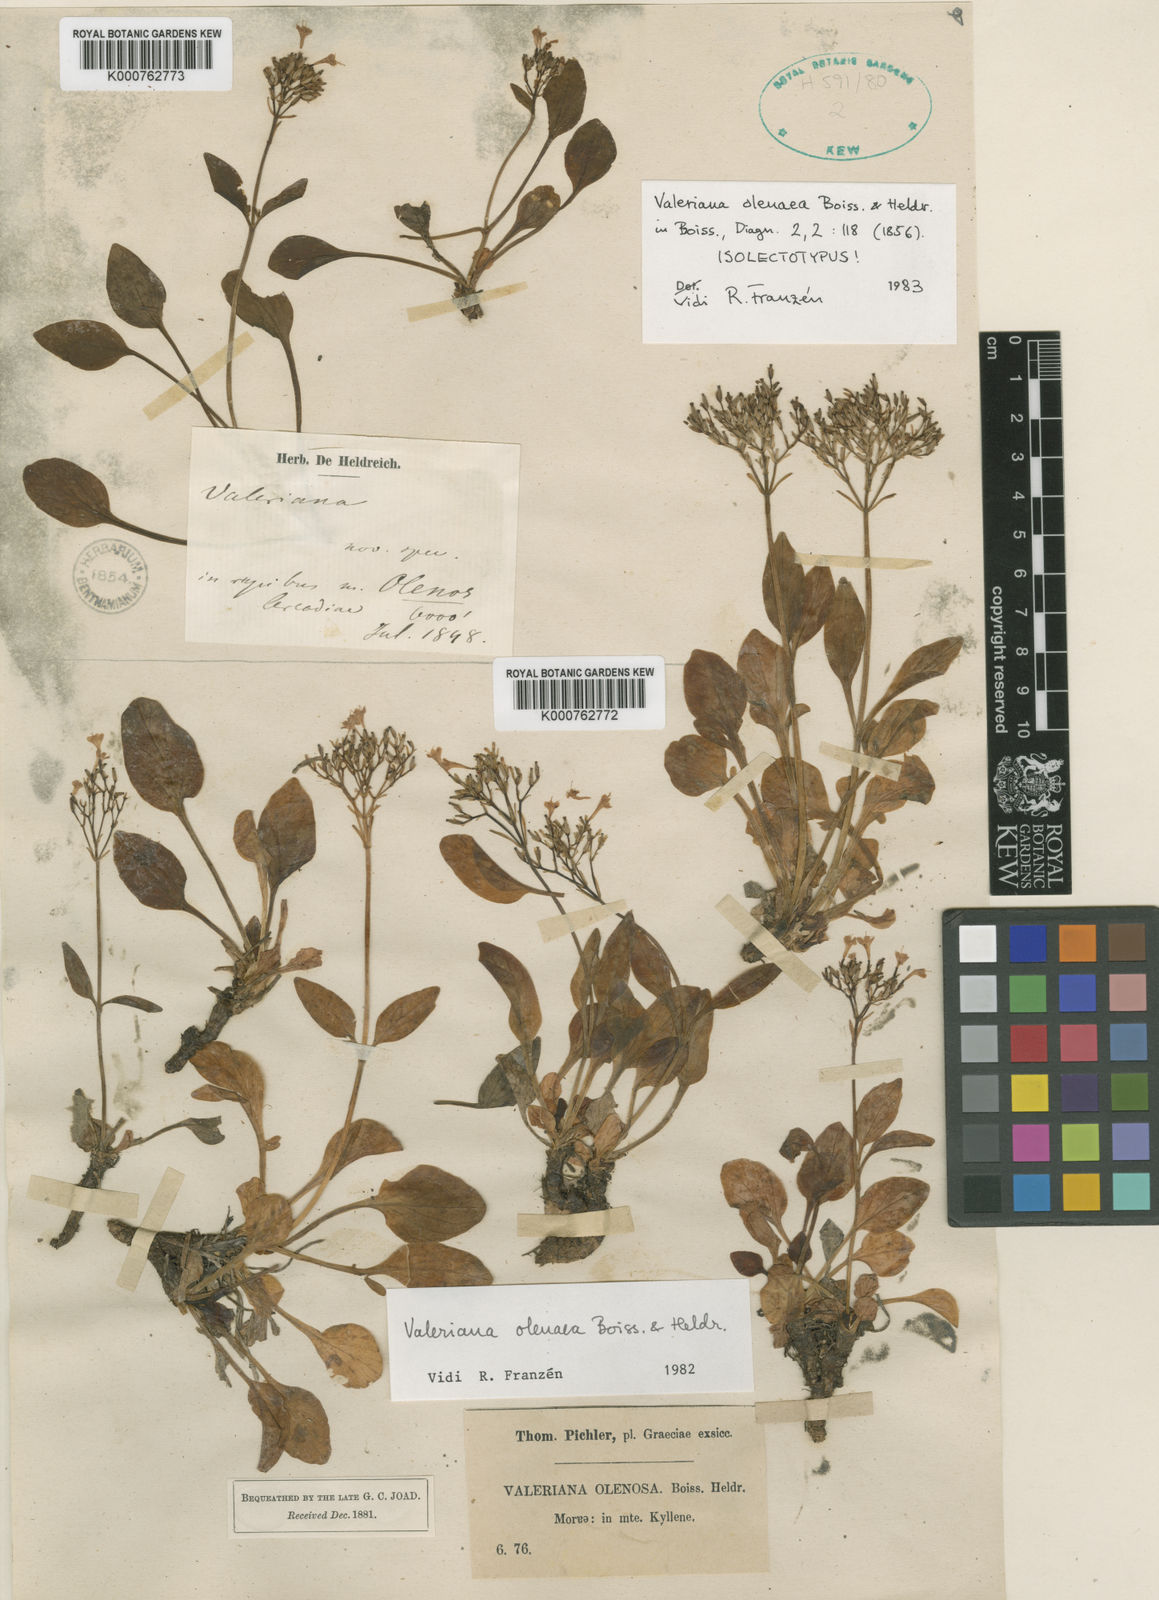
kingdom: Plantae
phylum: Tracheophyta
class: Magnoliopsida
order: Dipsacales
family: Caprifoliaceae
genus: Valeriana
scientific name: Valeriana olenaea
